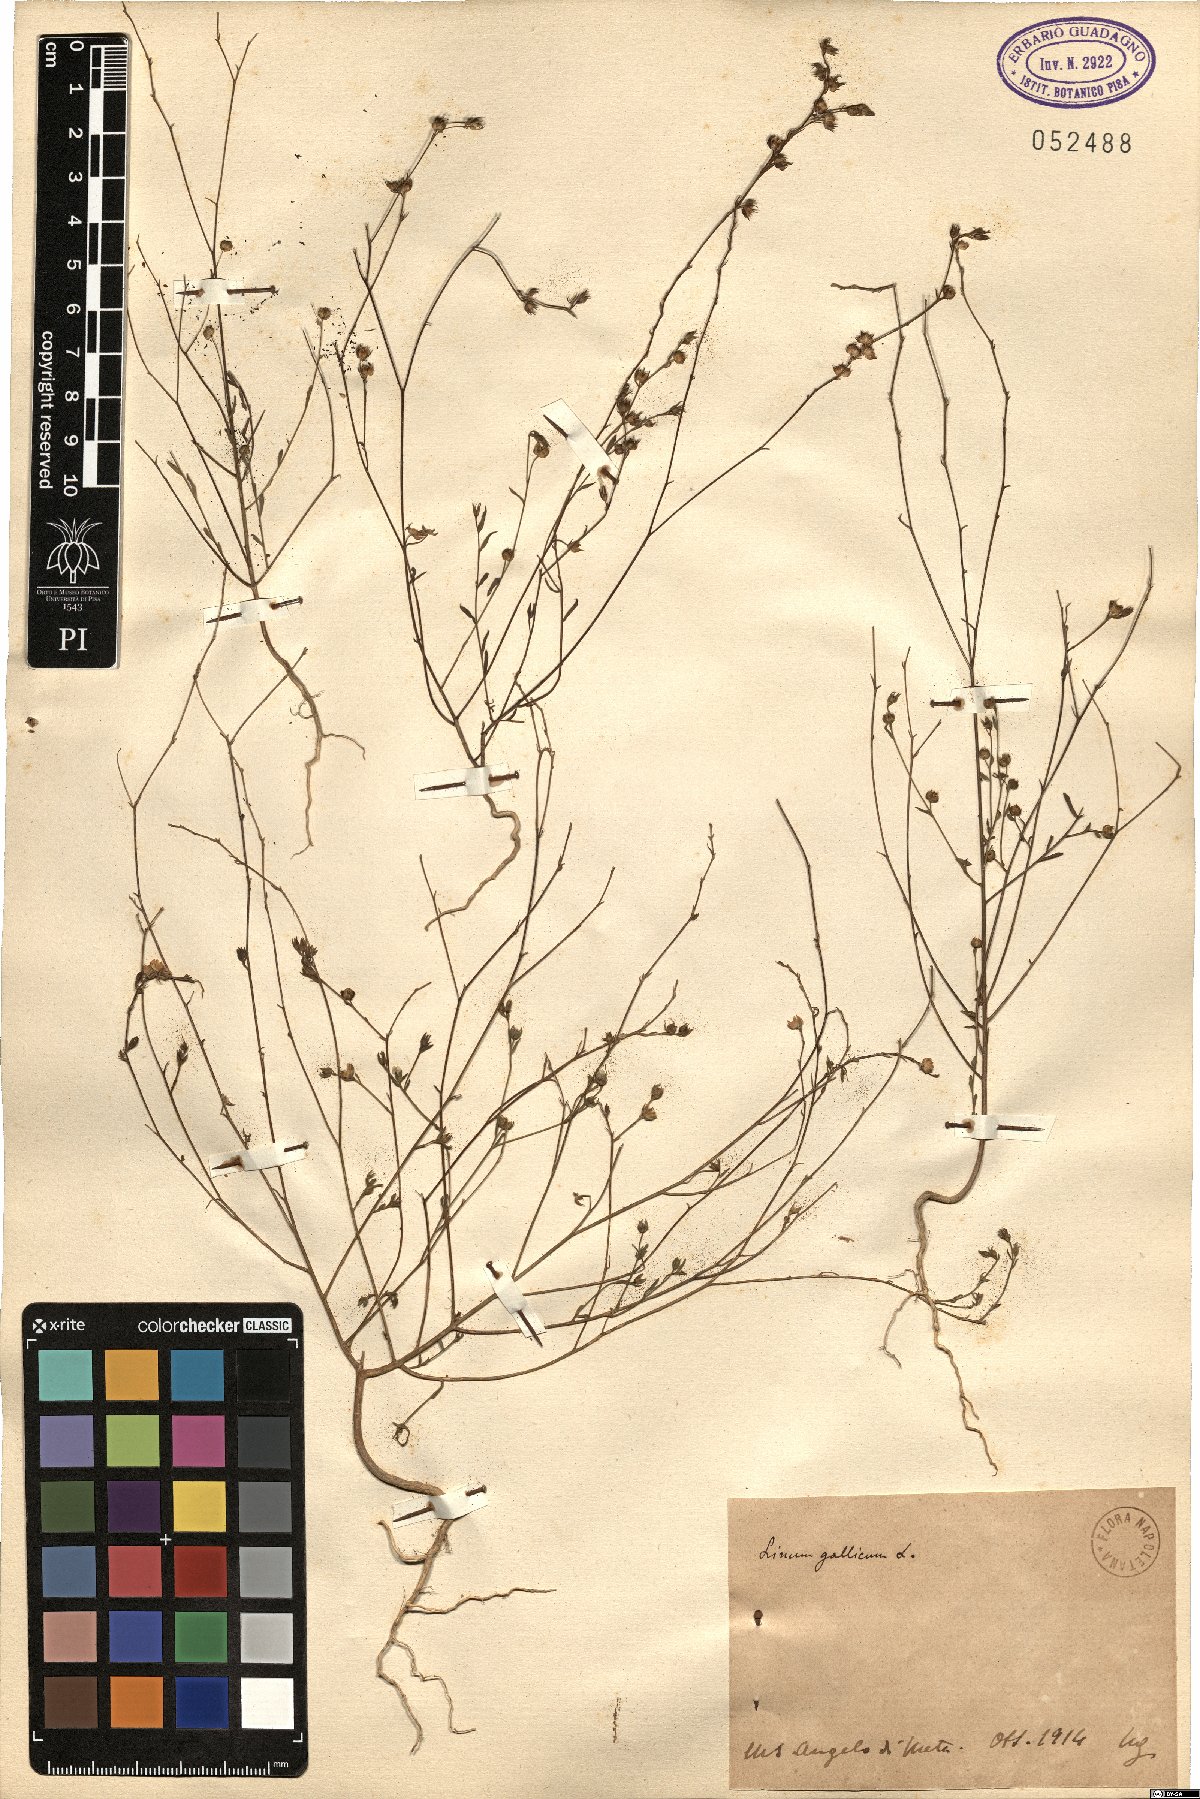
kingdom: Plantae
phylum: Tracheophyta
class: Magnoliopsida
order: Malpighiales
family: Linaceae
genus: Linum
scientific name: Linum trigynum
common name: French flax
